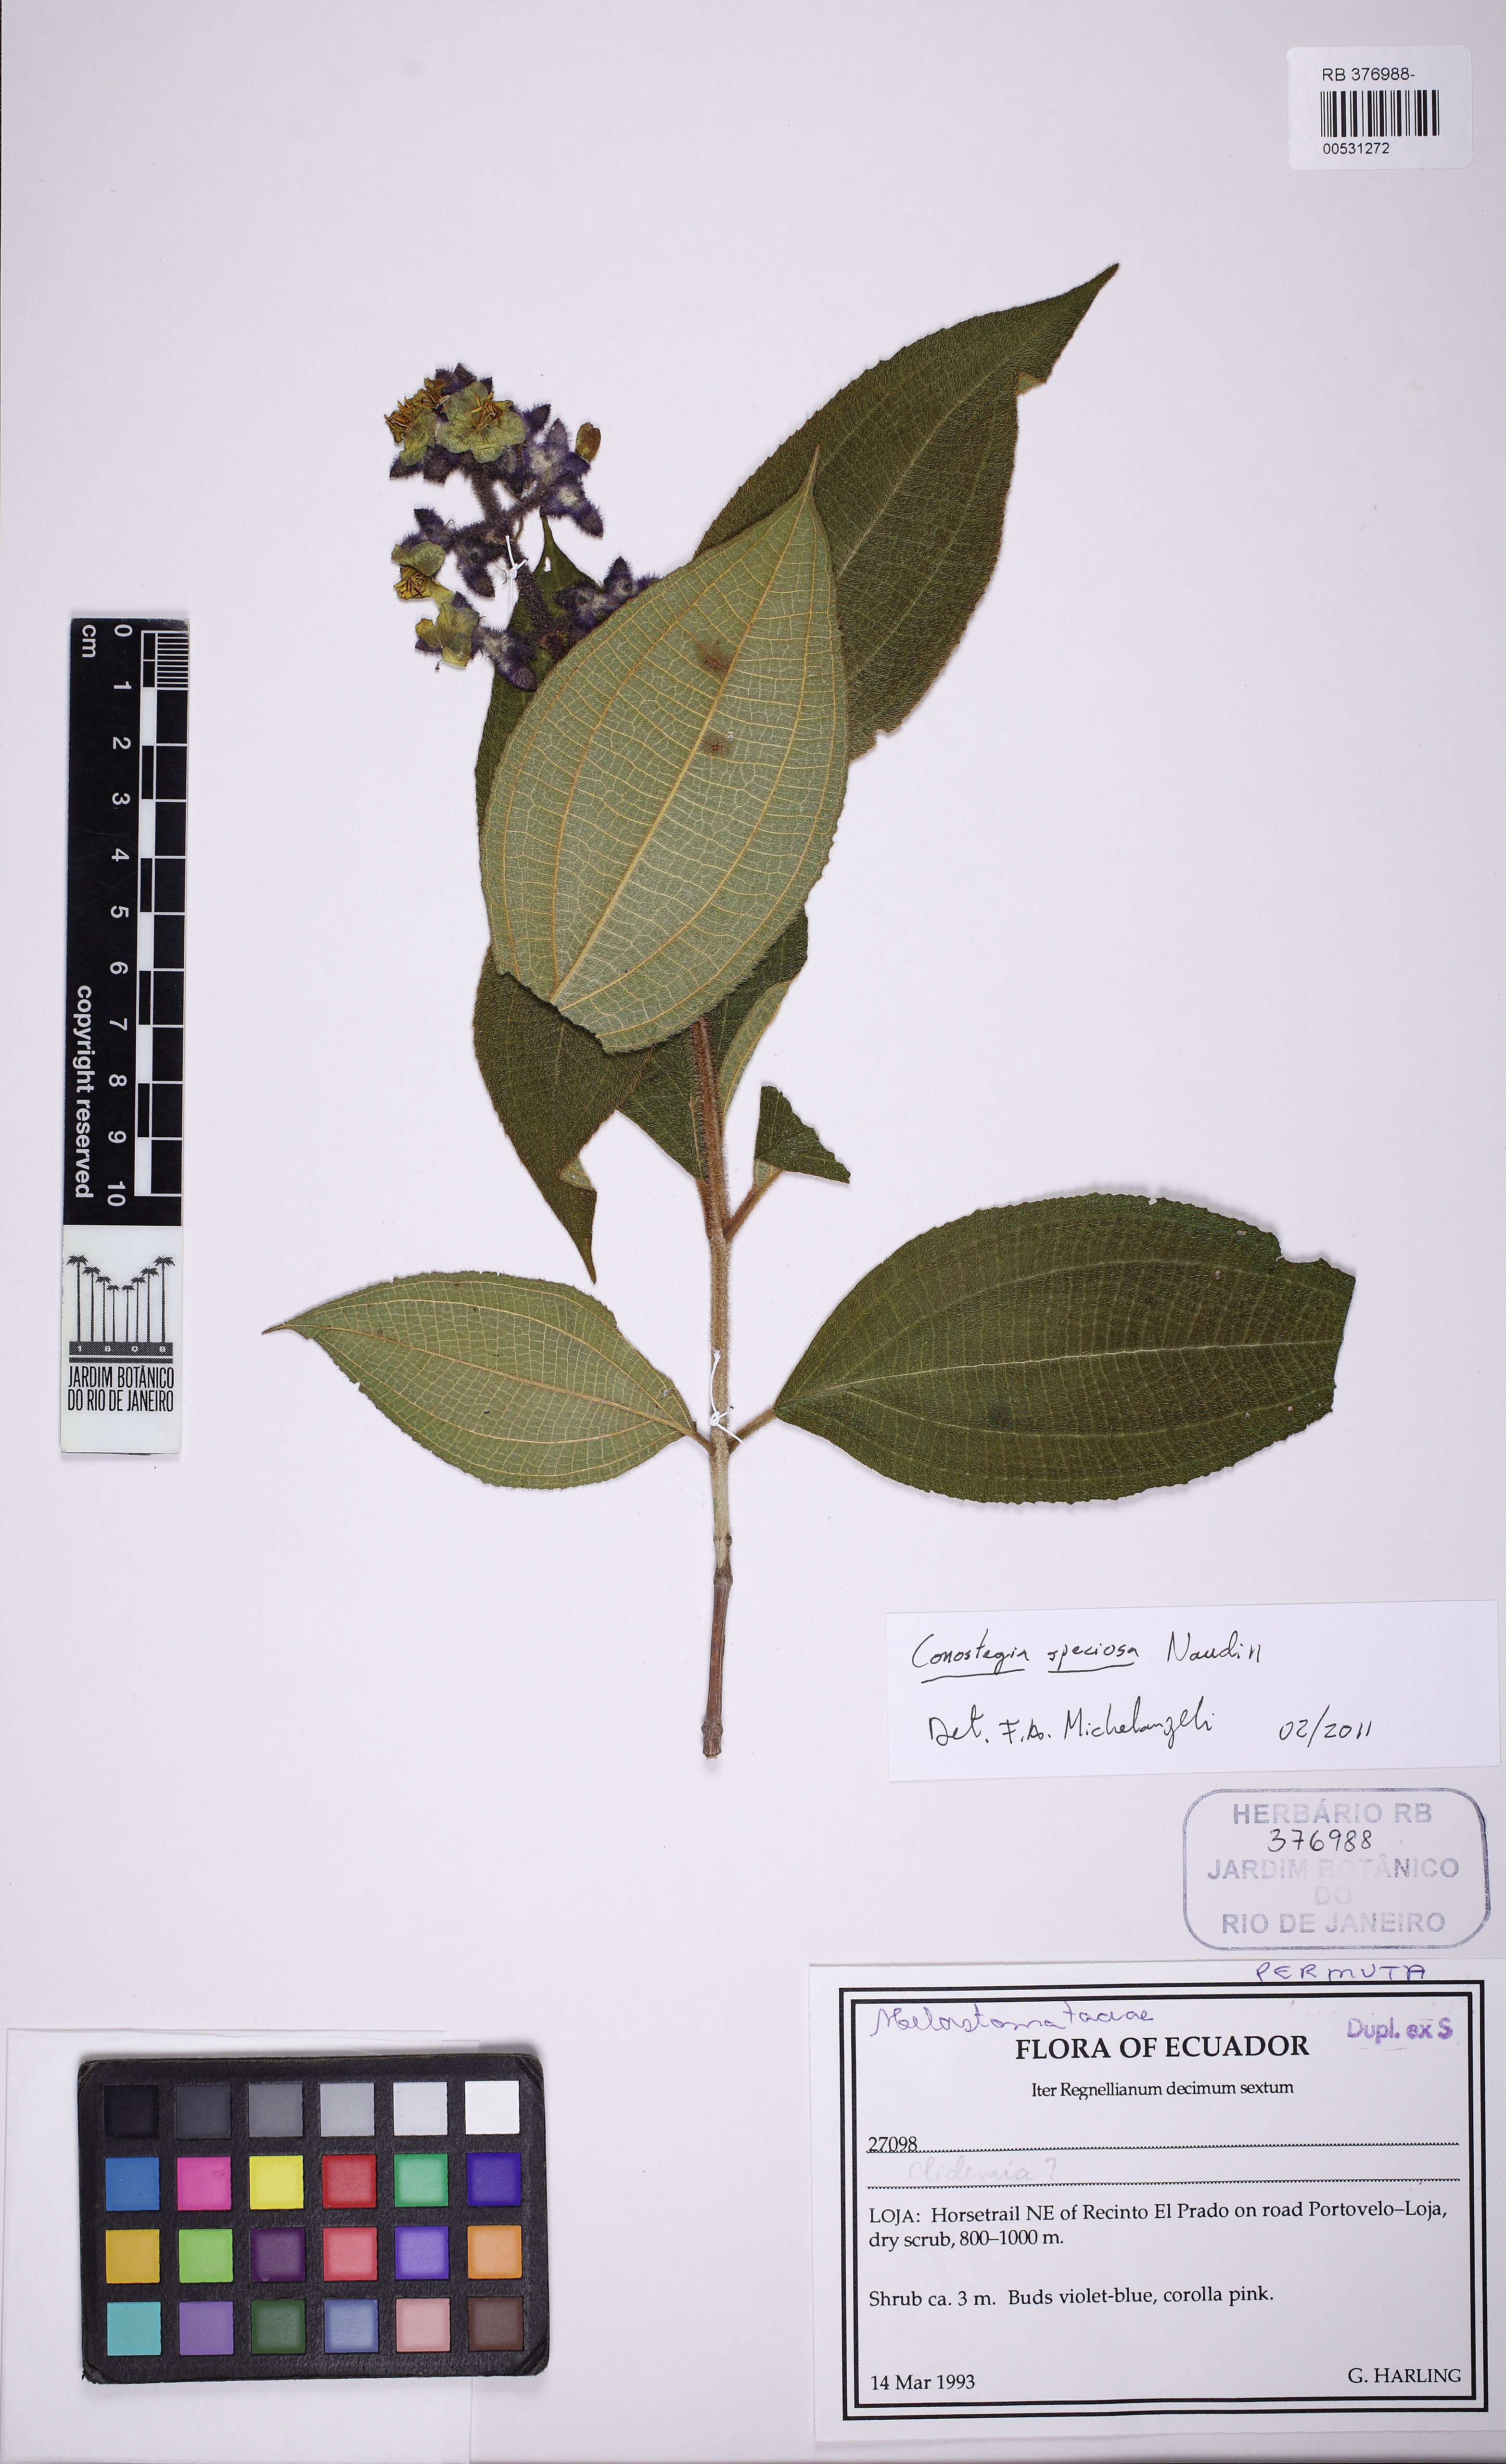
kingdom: Plantae
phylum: Tracheophyta
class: Magnoliopsida
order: Myrtales
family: Melastomataceae
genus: Miconia
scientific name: Miconia conospeciosa
